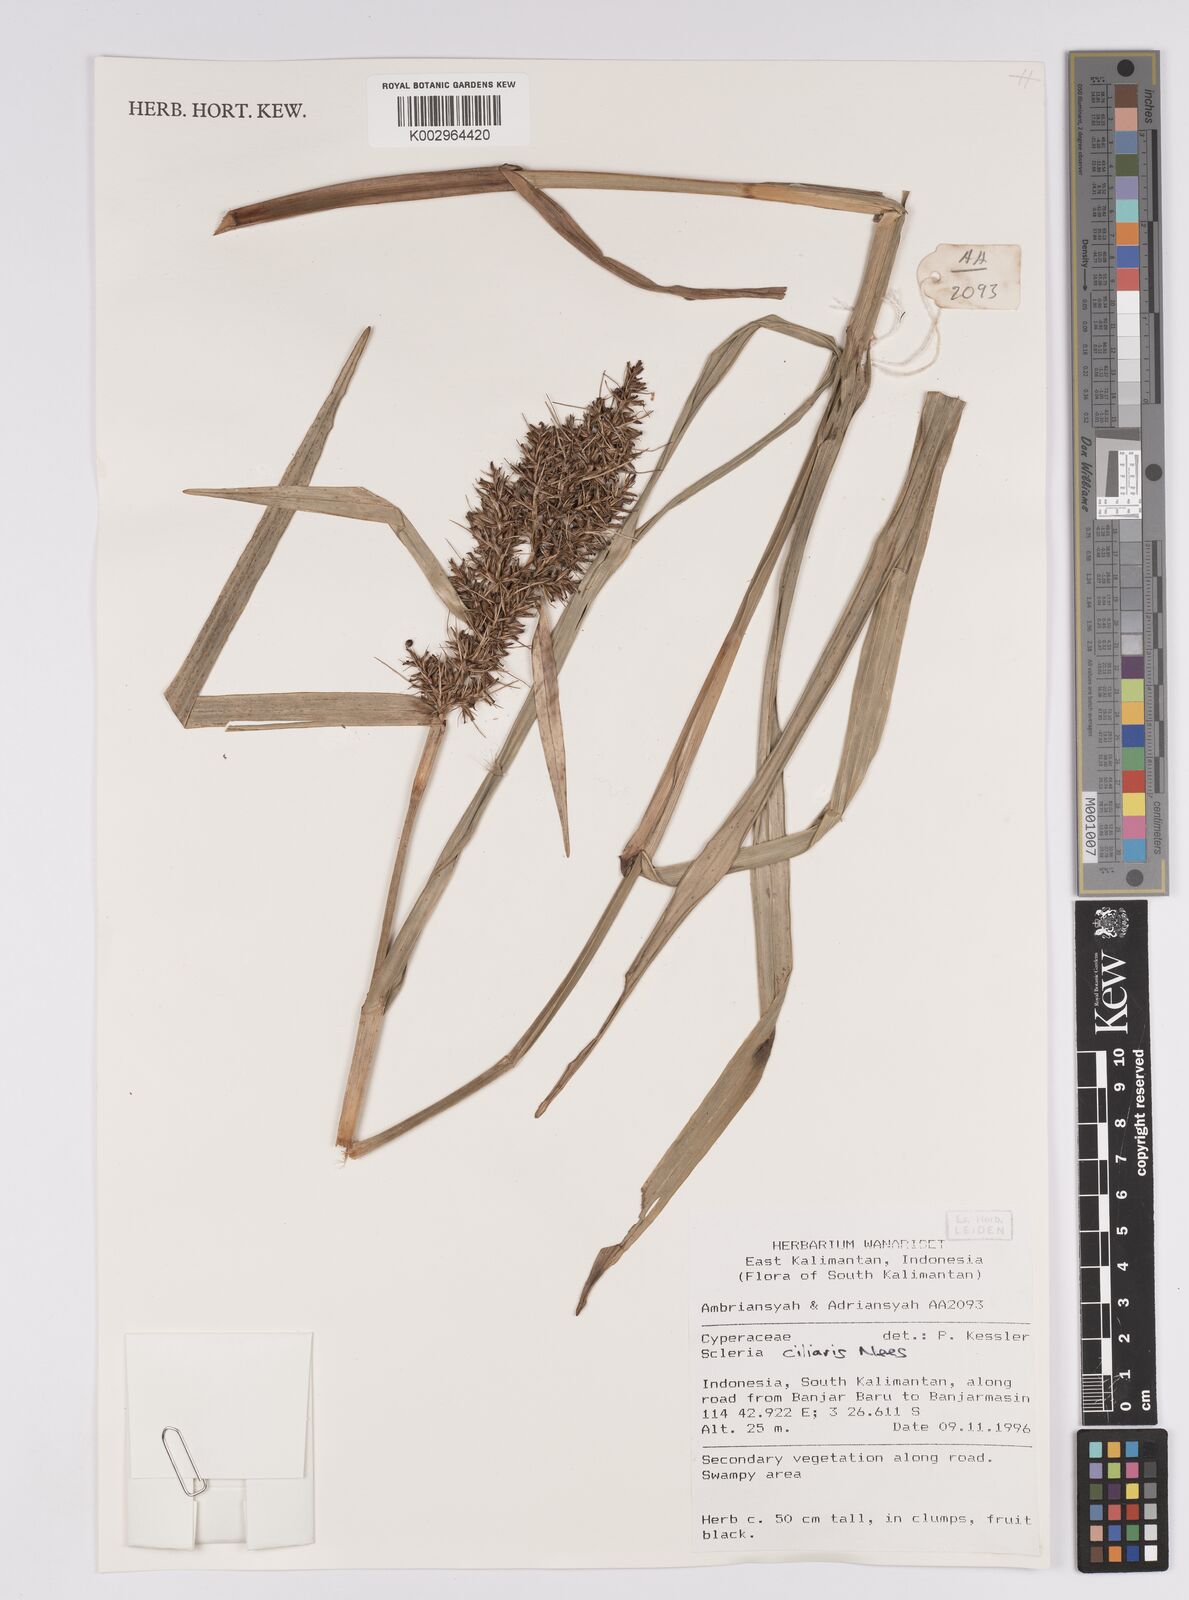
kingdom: Plantae
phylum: Tracheophyta
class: Liliopsida
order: Poales
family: Cyperaceae
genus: Scleria
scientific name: Scleria ciliaris
